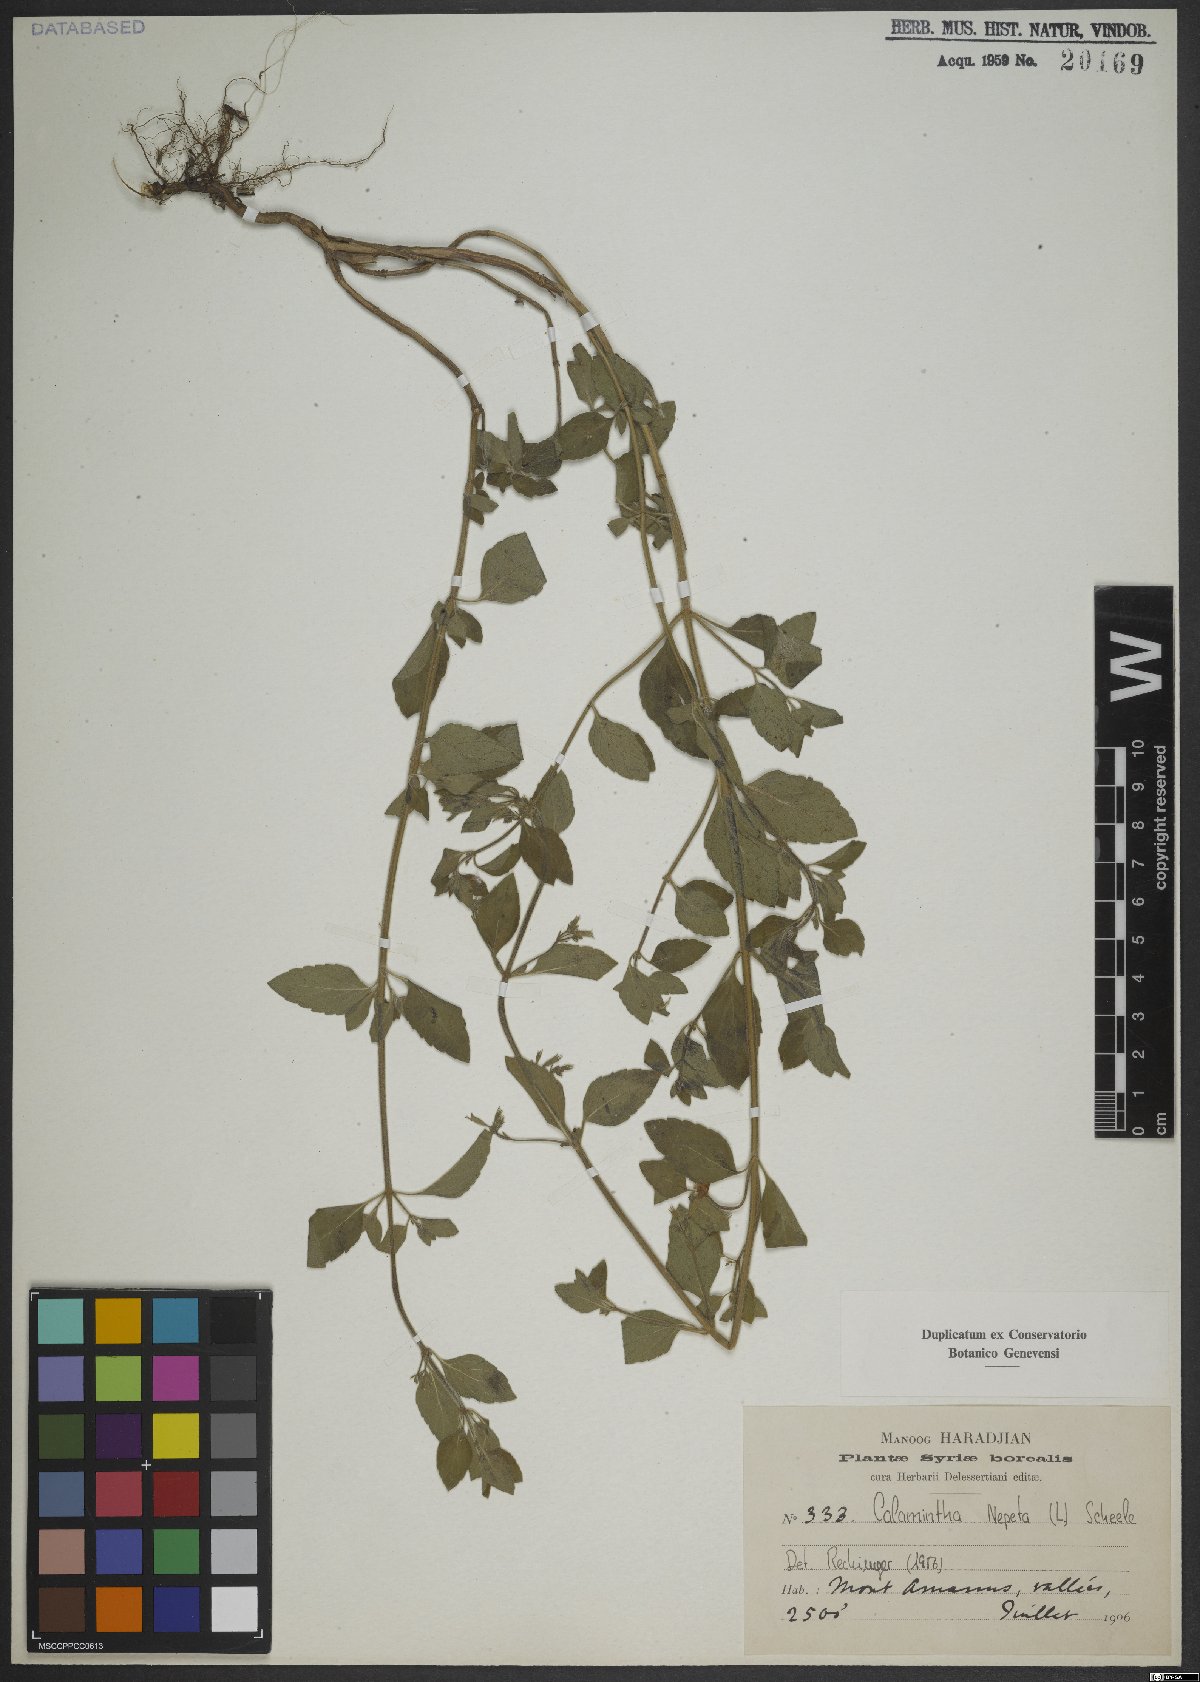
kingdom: Plantae
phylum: Tracheophyta
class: Magnoliopsida
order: Lamiales
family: Lamiaceae
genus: Clinopodium
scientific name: Clinopodium nepeta
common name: Lesser calamint
